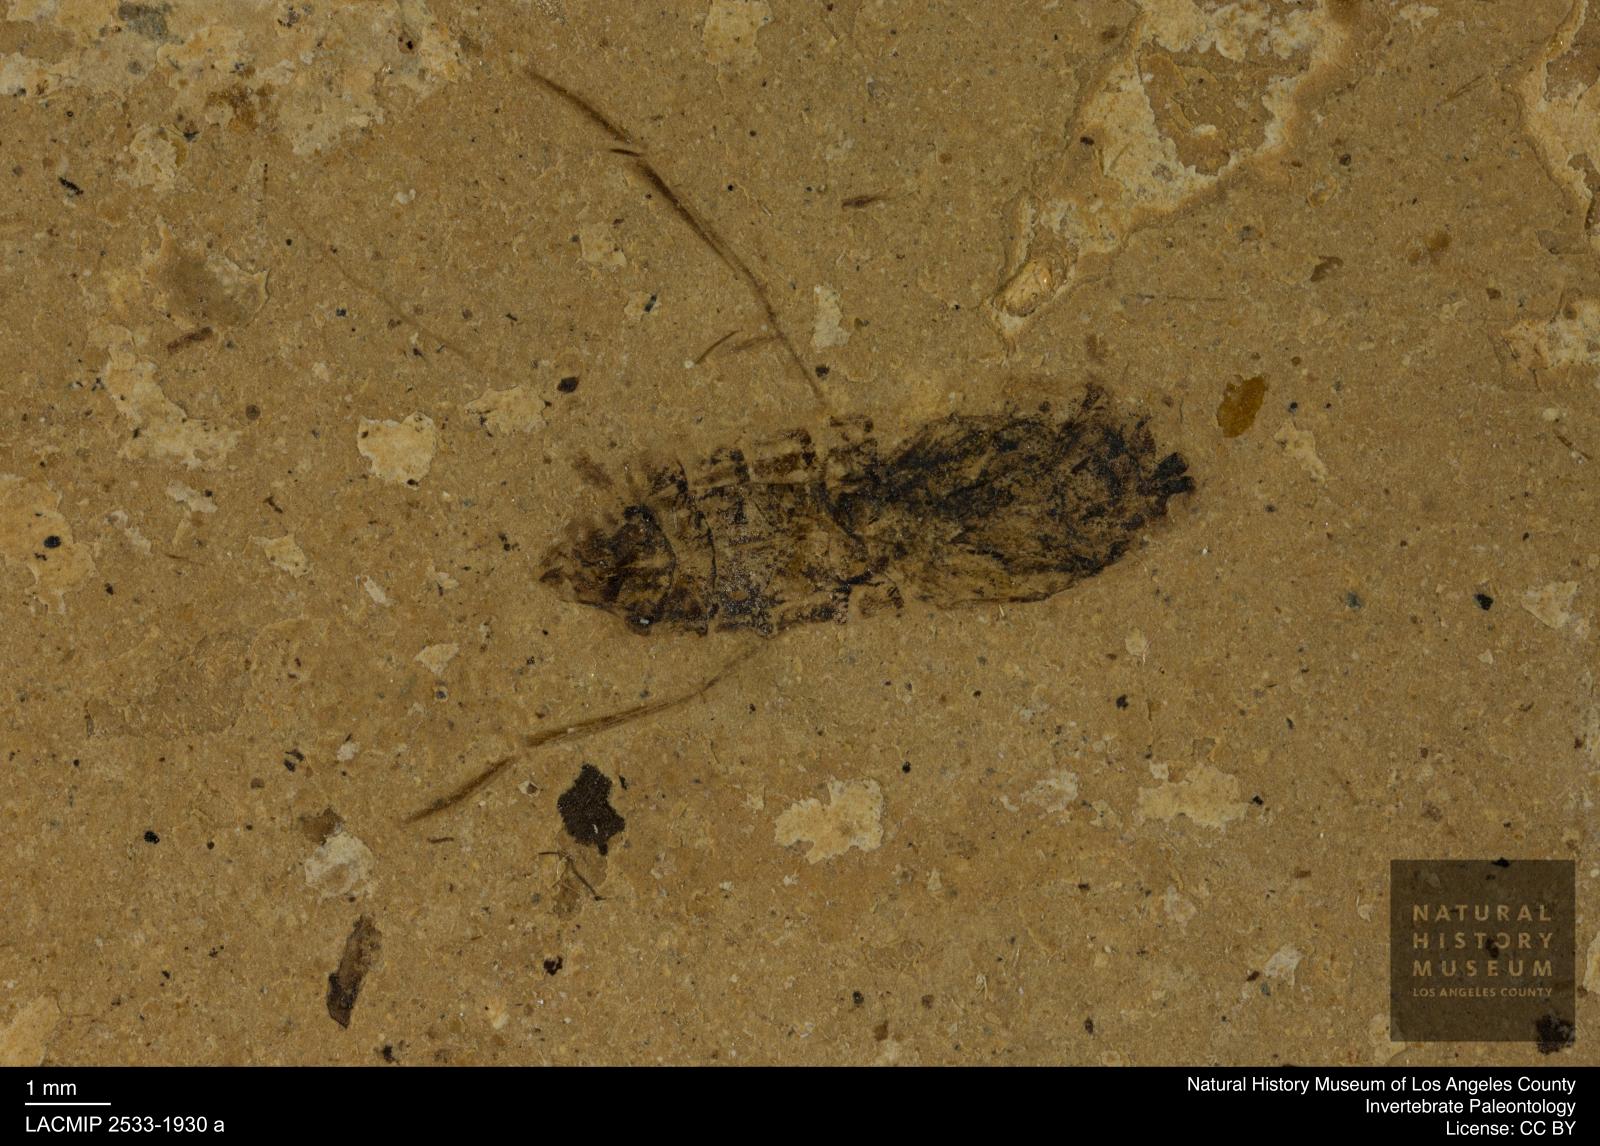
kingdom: Animalia
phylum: Arthropoda
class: Insecta
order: Hemiptera
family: Notonectidae
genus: Anisops
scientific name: Anisops Notonecta deichmuelleri
